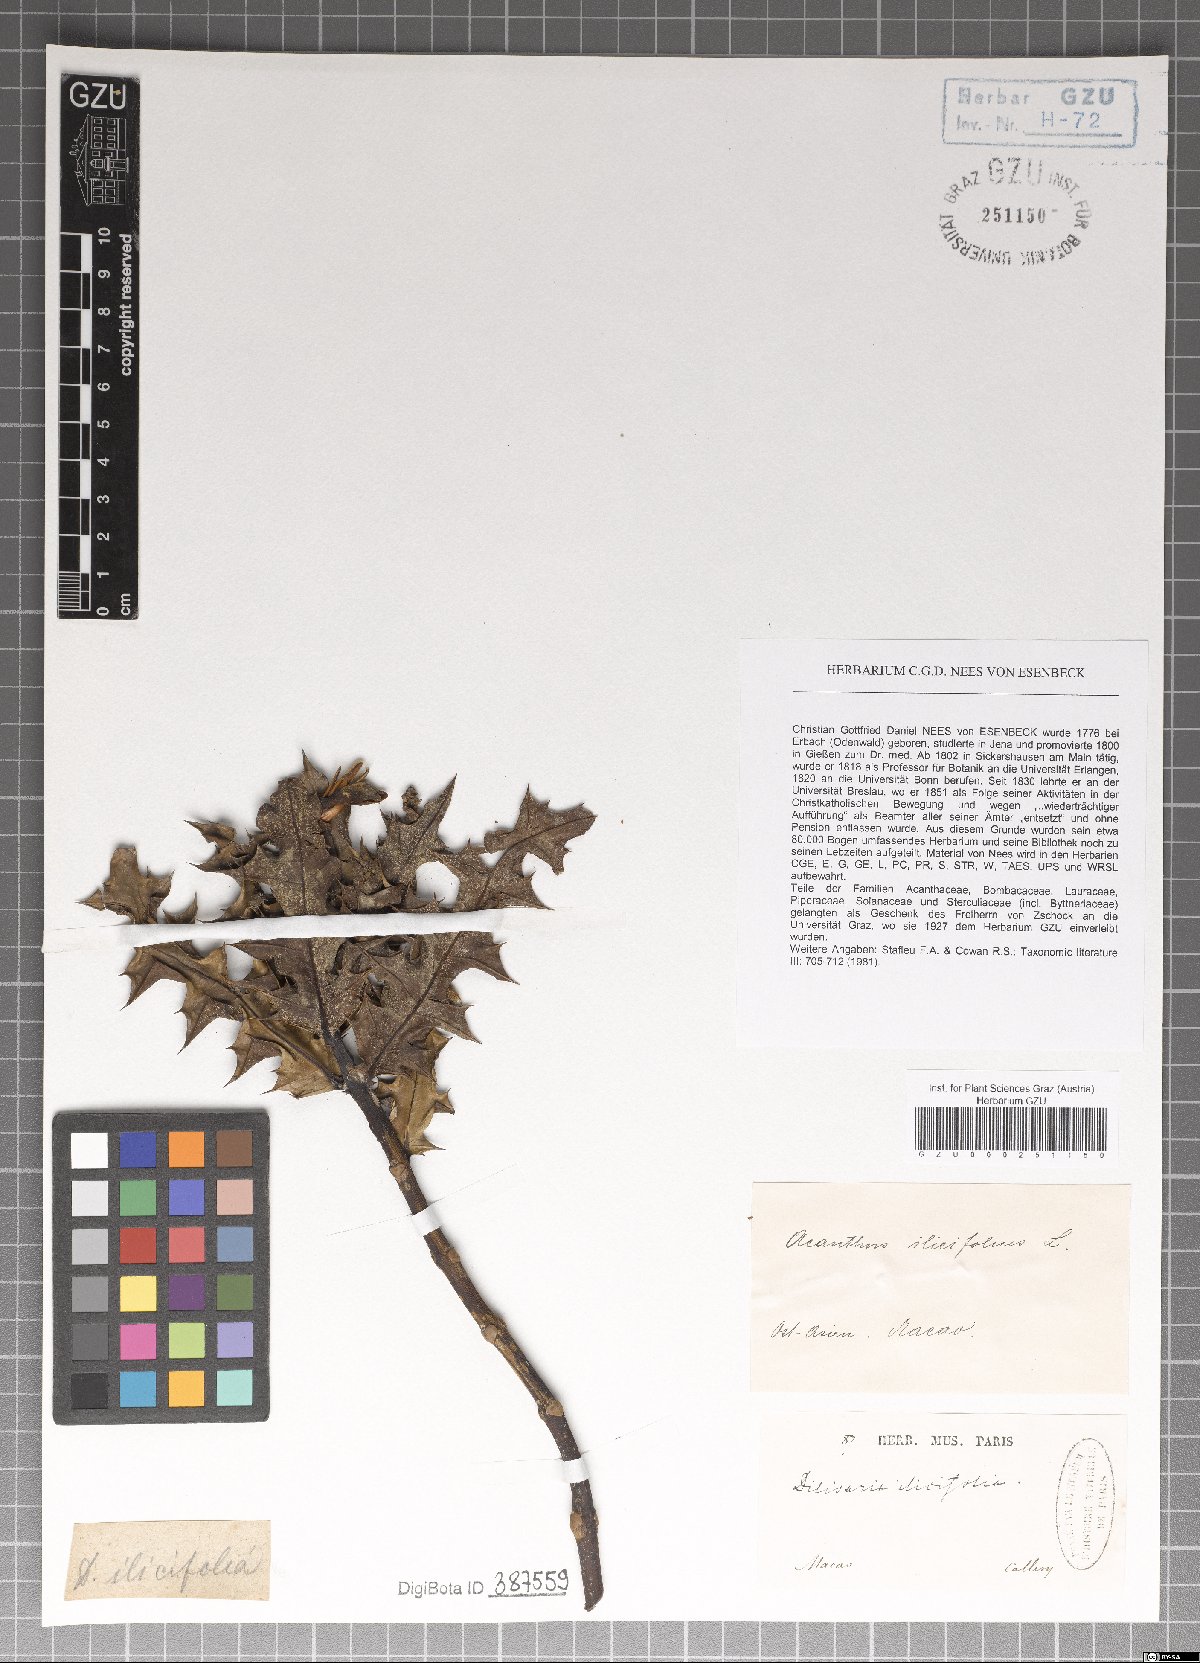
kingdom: Plantae
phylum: Tracheophyta
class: Magnoliopsida
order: Lamiales
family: Acanthaceae
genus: Acanthus
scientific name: Acanthus ilicifolius
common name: Holy mangrove
